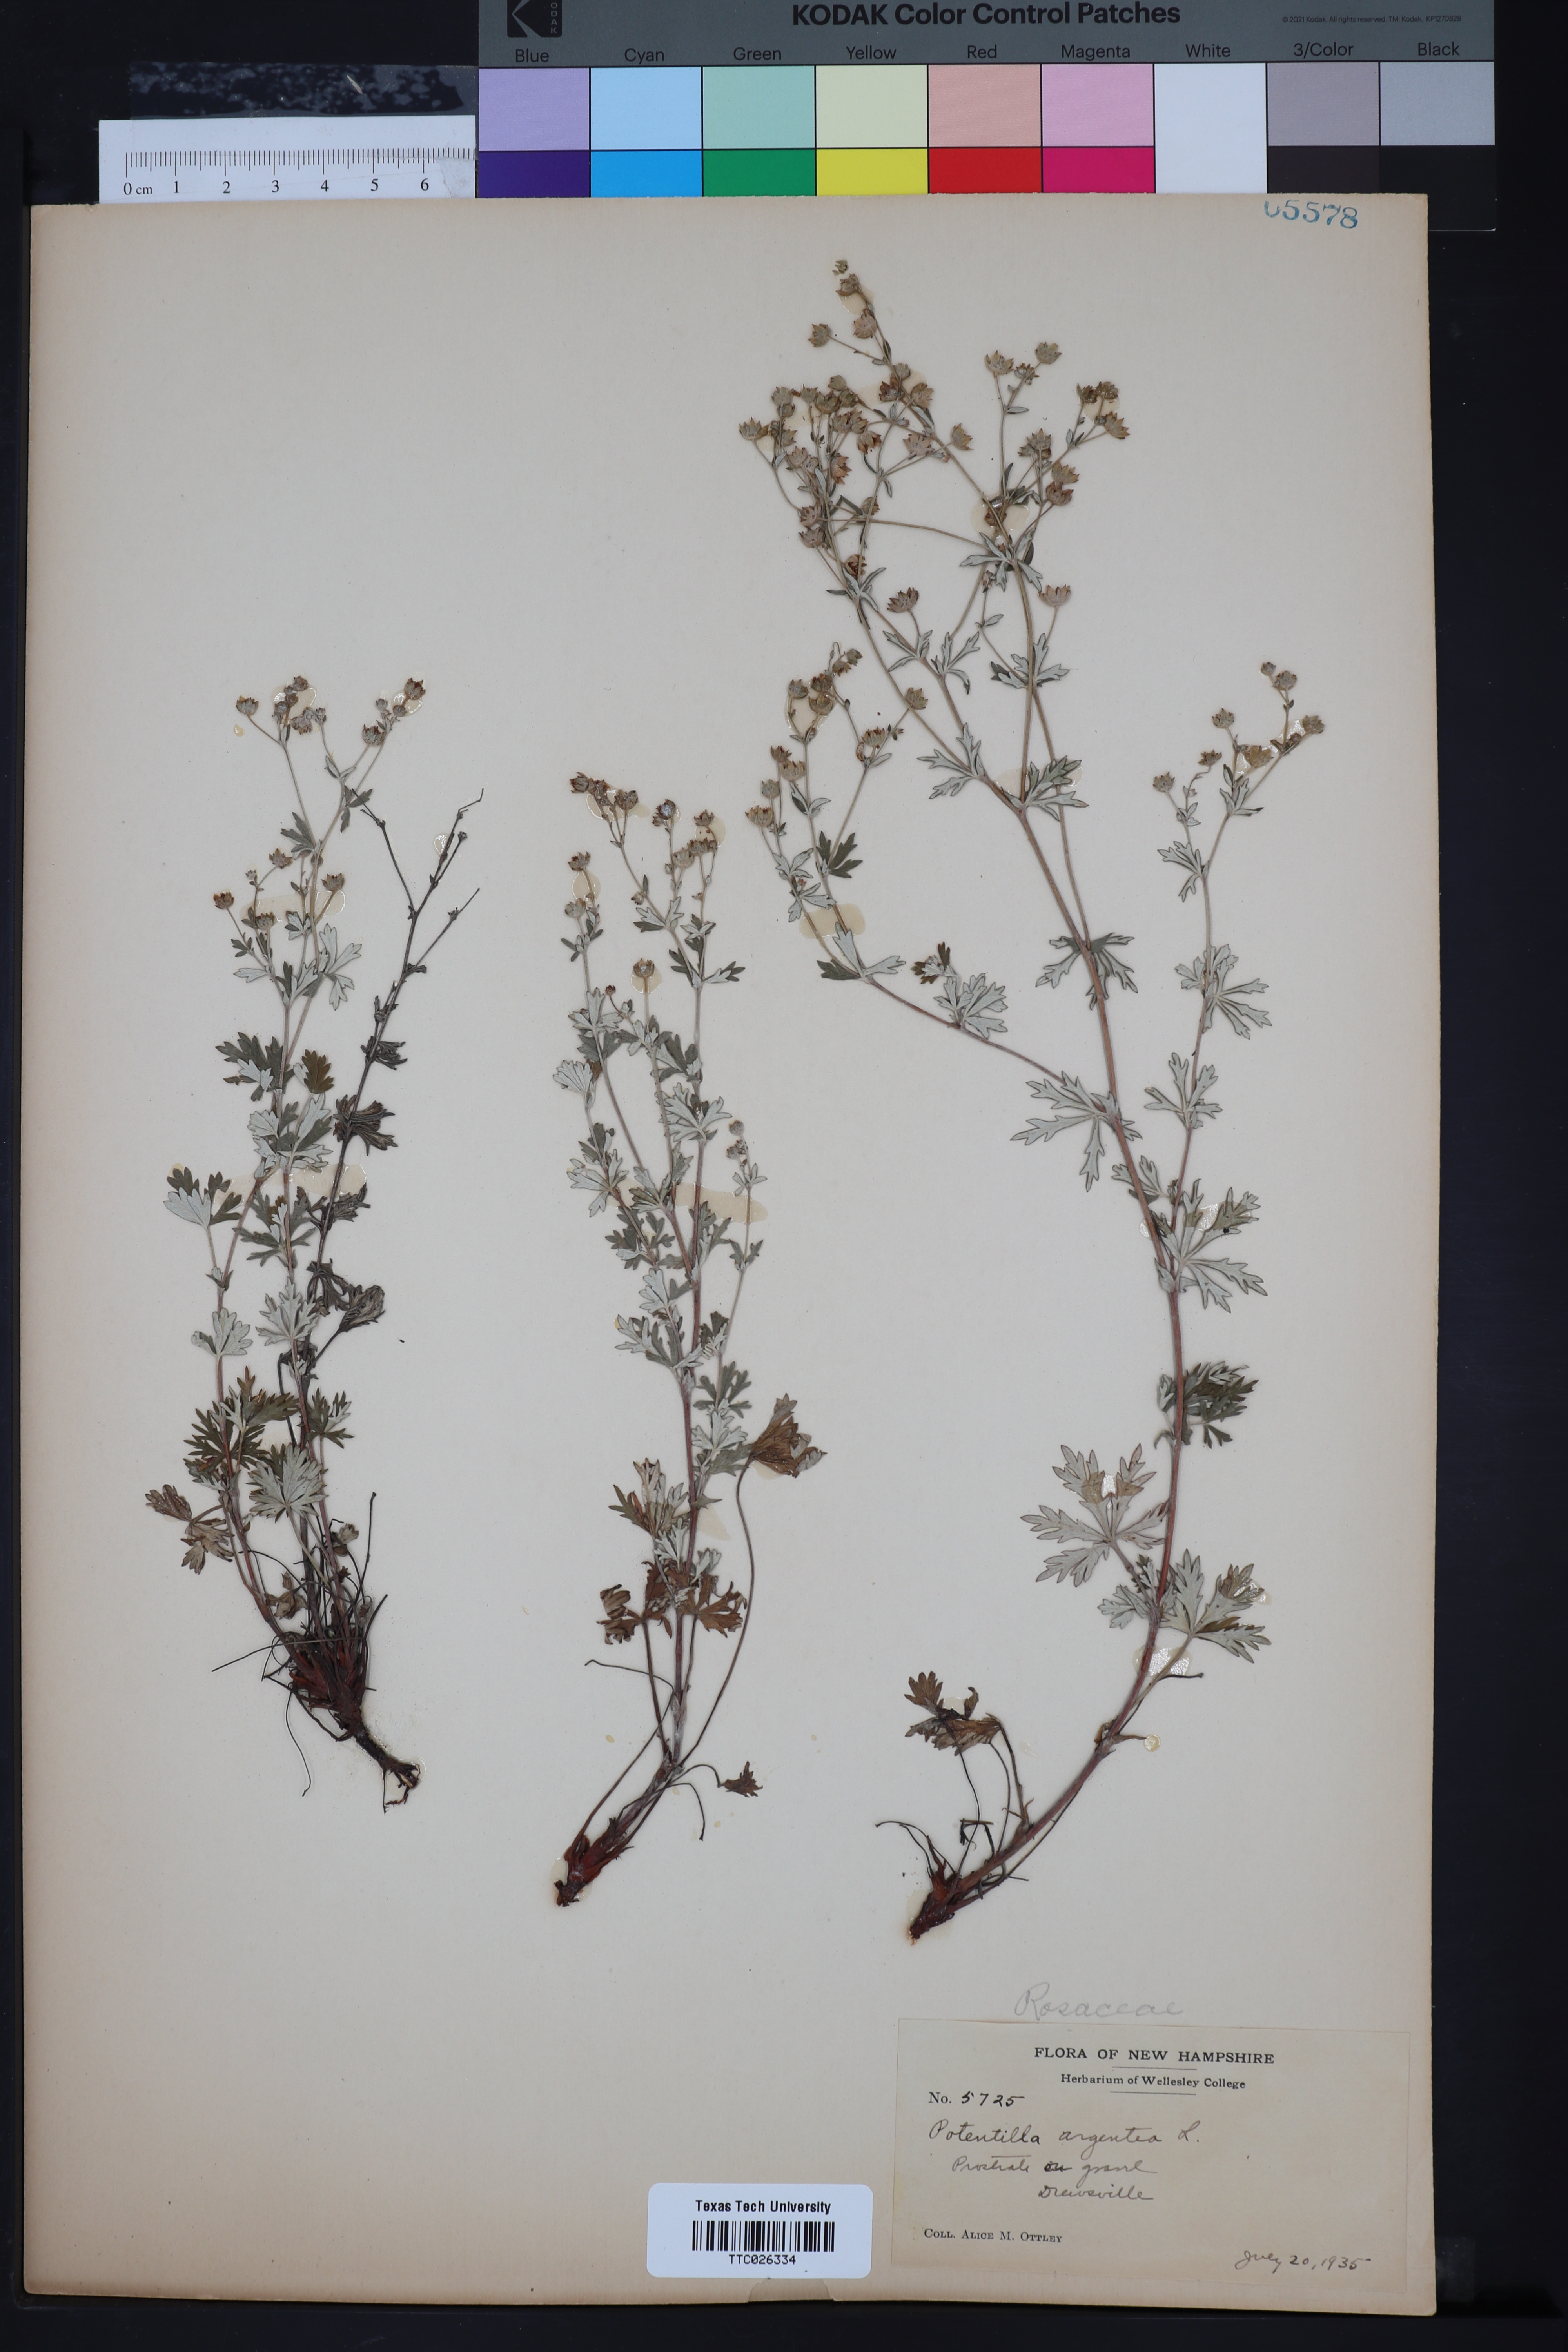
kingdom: Plantae
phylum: Tracheophyta
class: Magnoliopsida
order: Rosales
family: Rosaceae
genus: Potentilla
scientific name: Potentilla argentea
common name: Hoary cinquefoil
